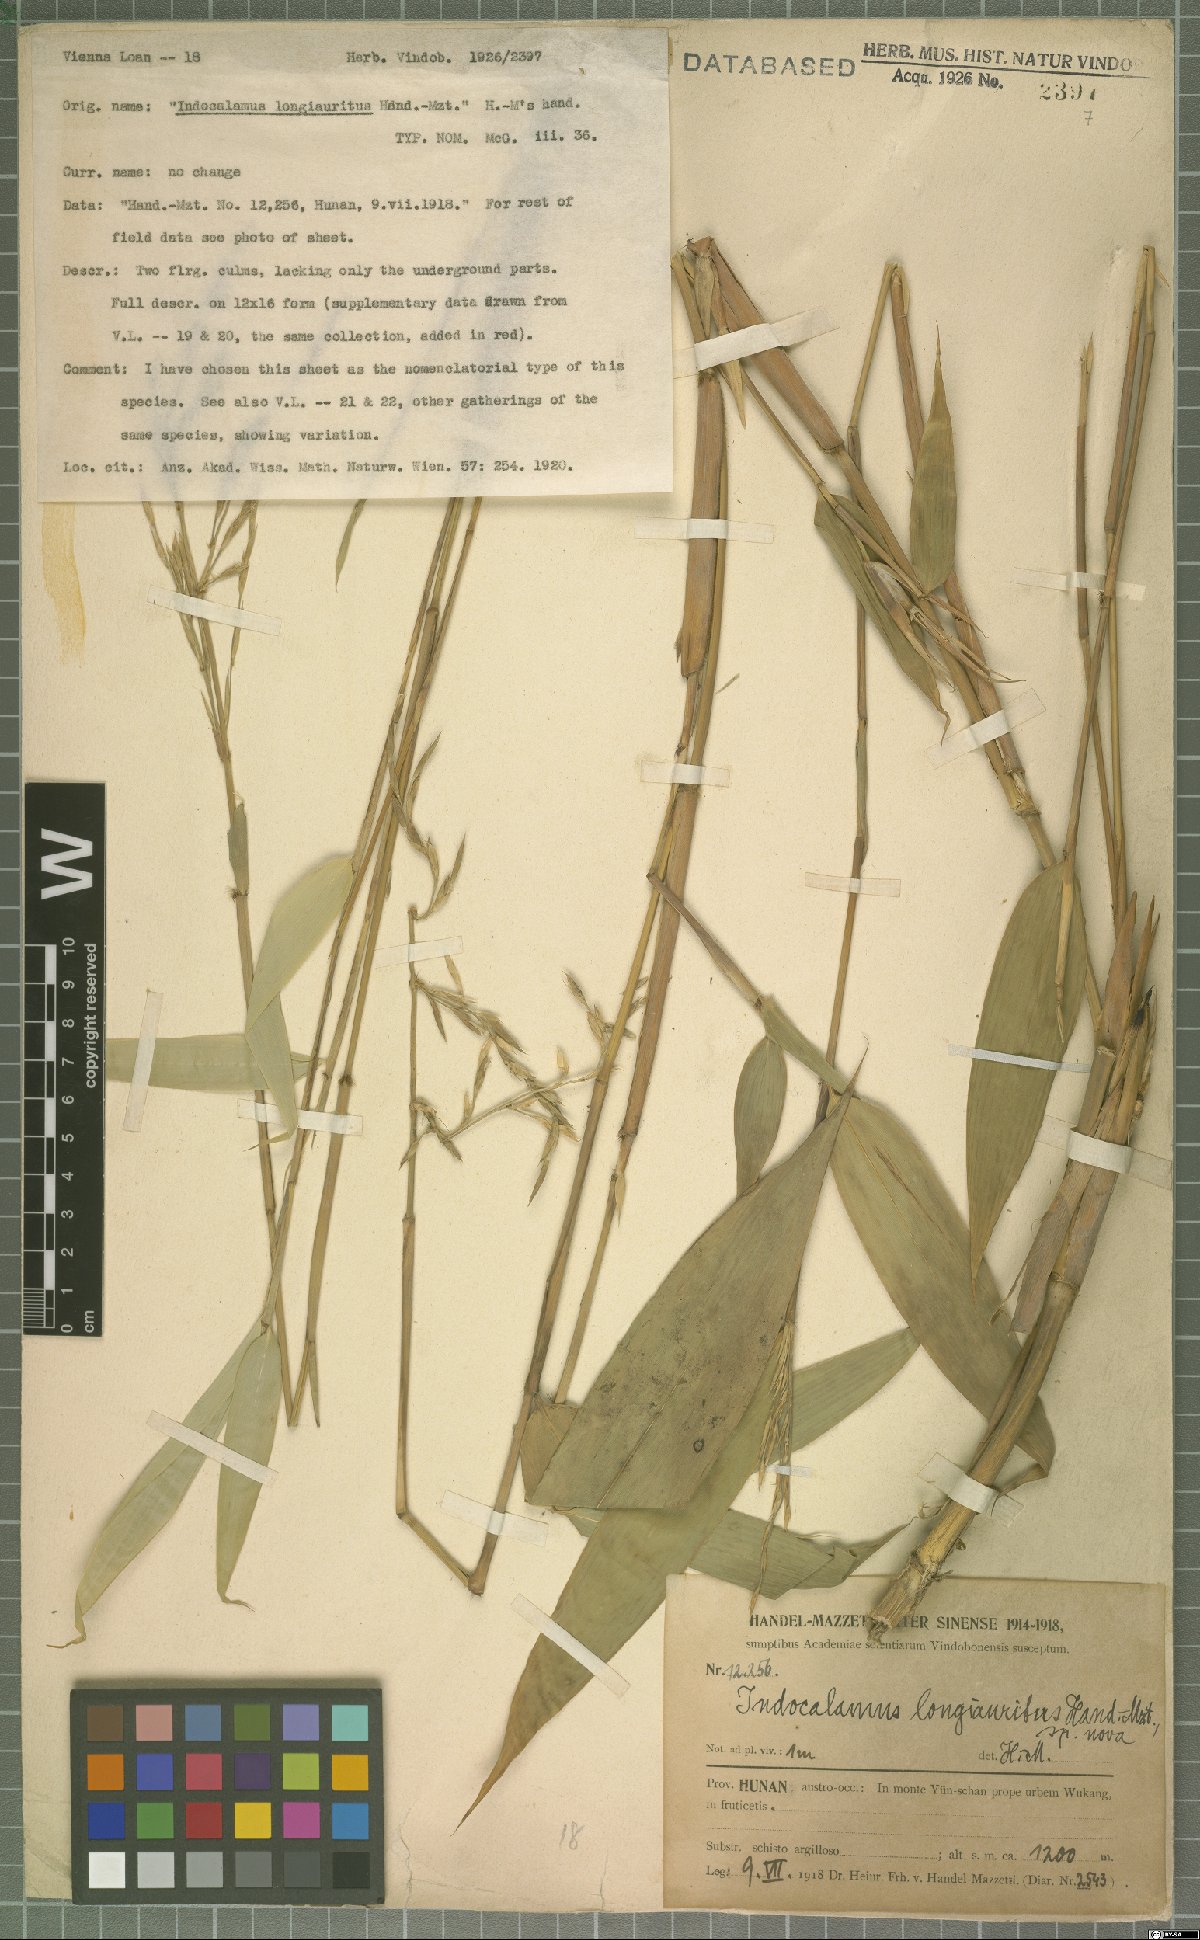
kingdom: Plantae
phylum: Tracheophyta
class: Liliopsida
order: Poales
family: Poaceae
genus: Indocalamus
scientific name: Indocalamus longiauritus
